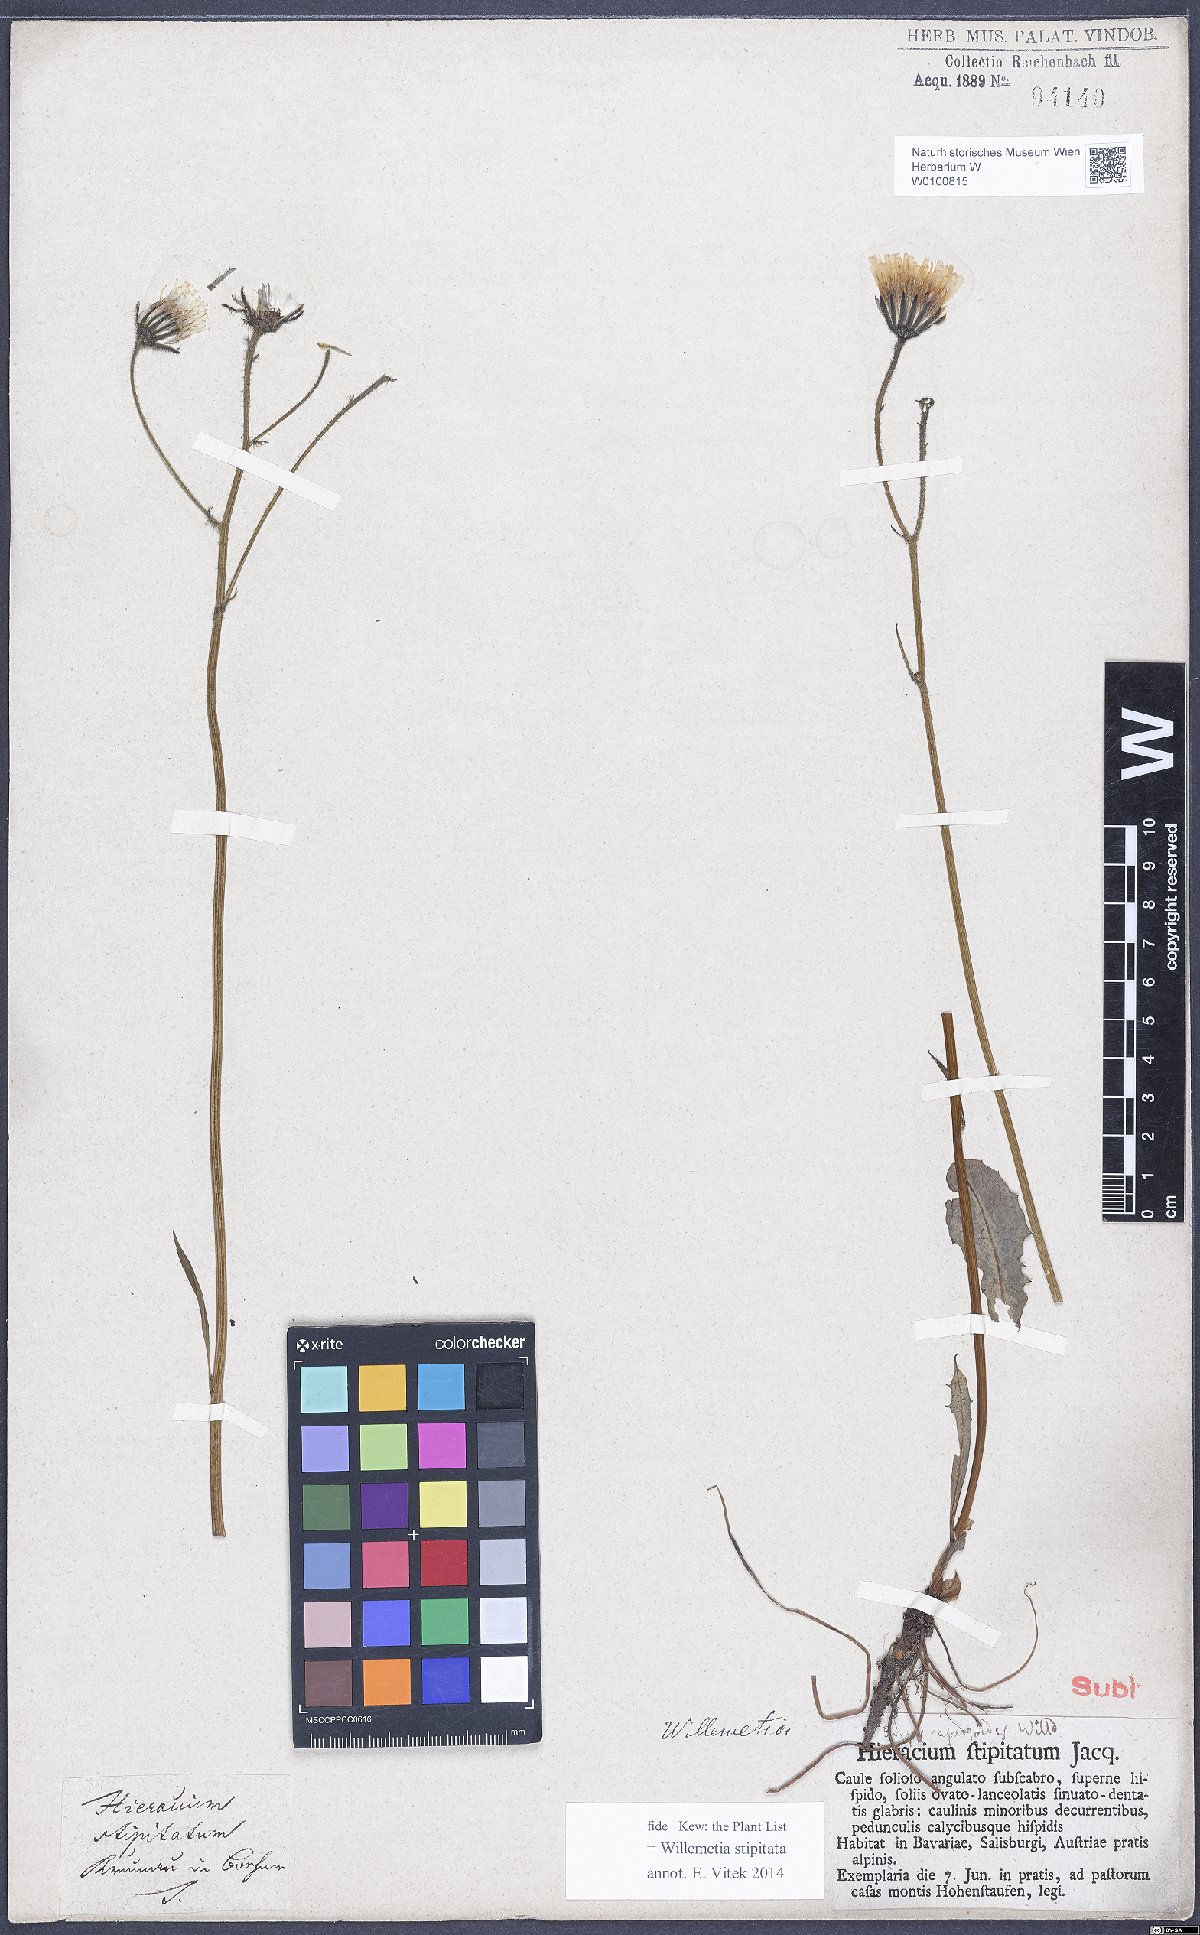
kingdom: Plantae
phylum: Tracheophyta
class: Magnoliopsida
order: Asterales
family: Asteraceae
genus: Willemetia
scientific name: Willemetia stipitata
